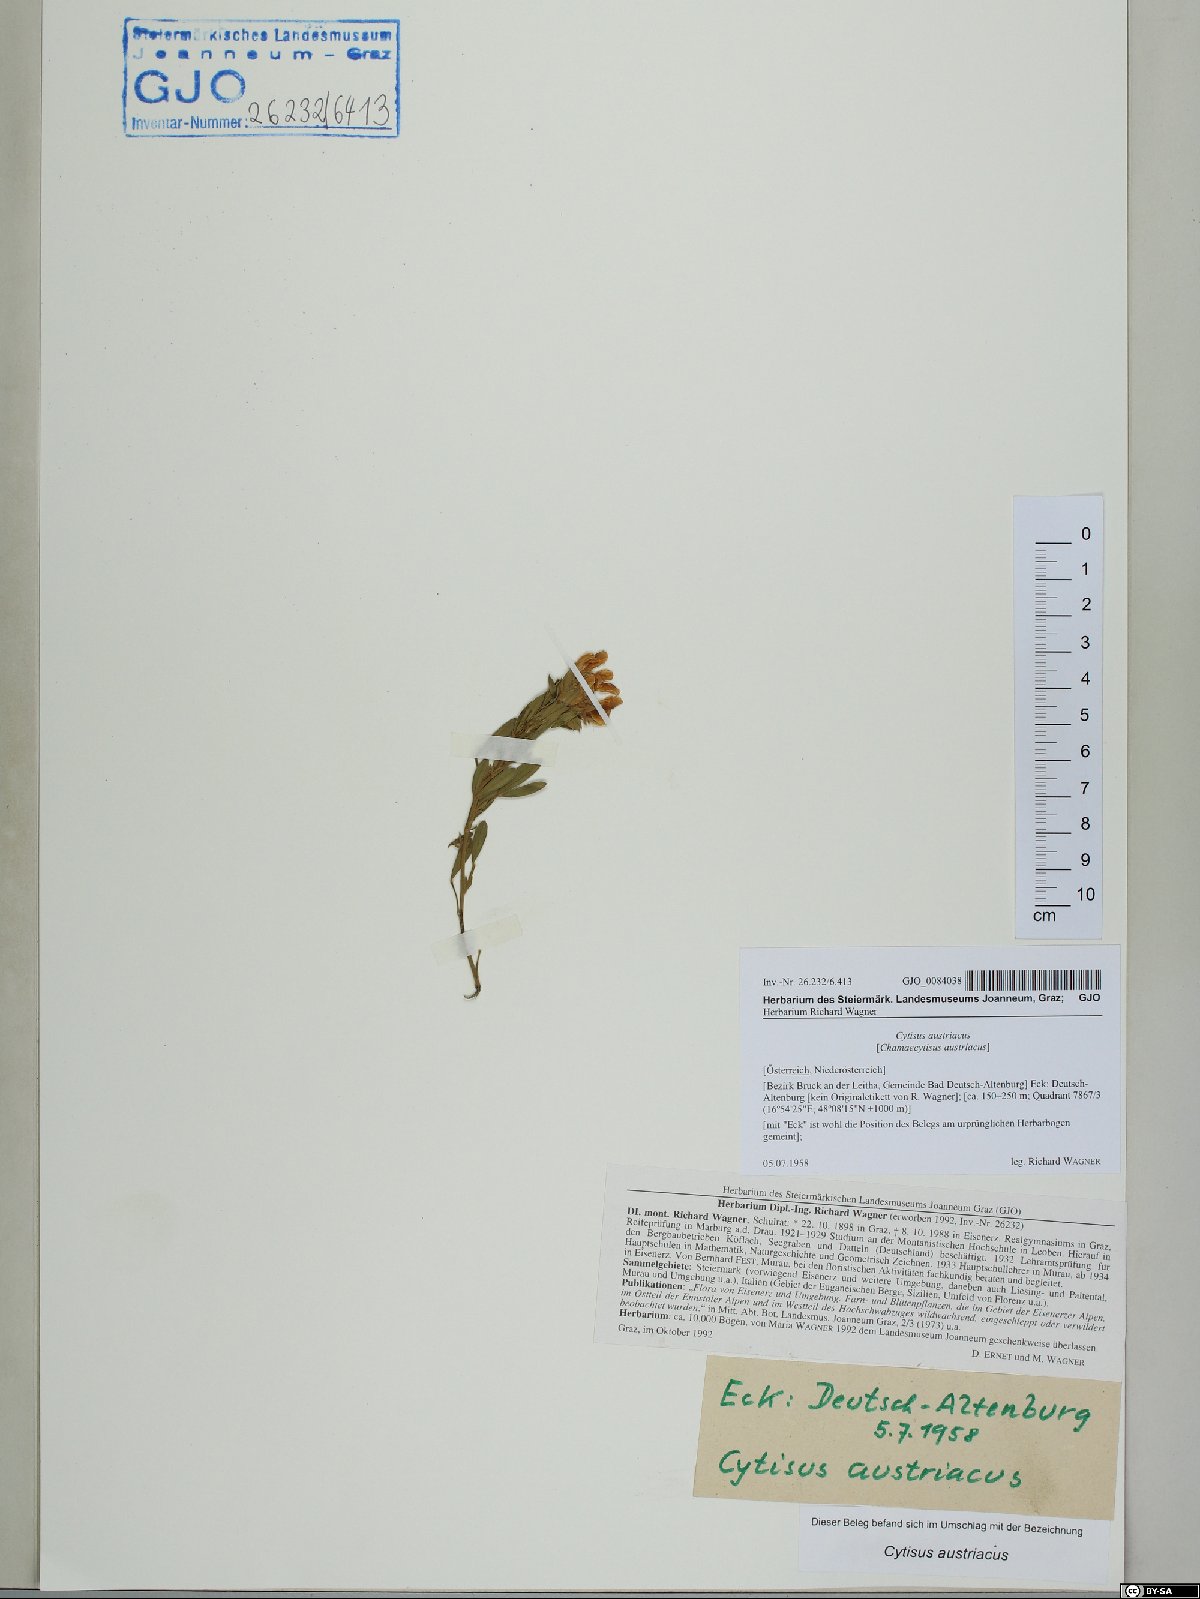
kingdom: Plantae
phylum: Tracheophyta
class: Magnoliopsida
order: Fabales
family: Fabaceae
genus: Chamaecytisus
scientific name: Chamaecytisus austriacus
